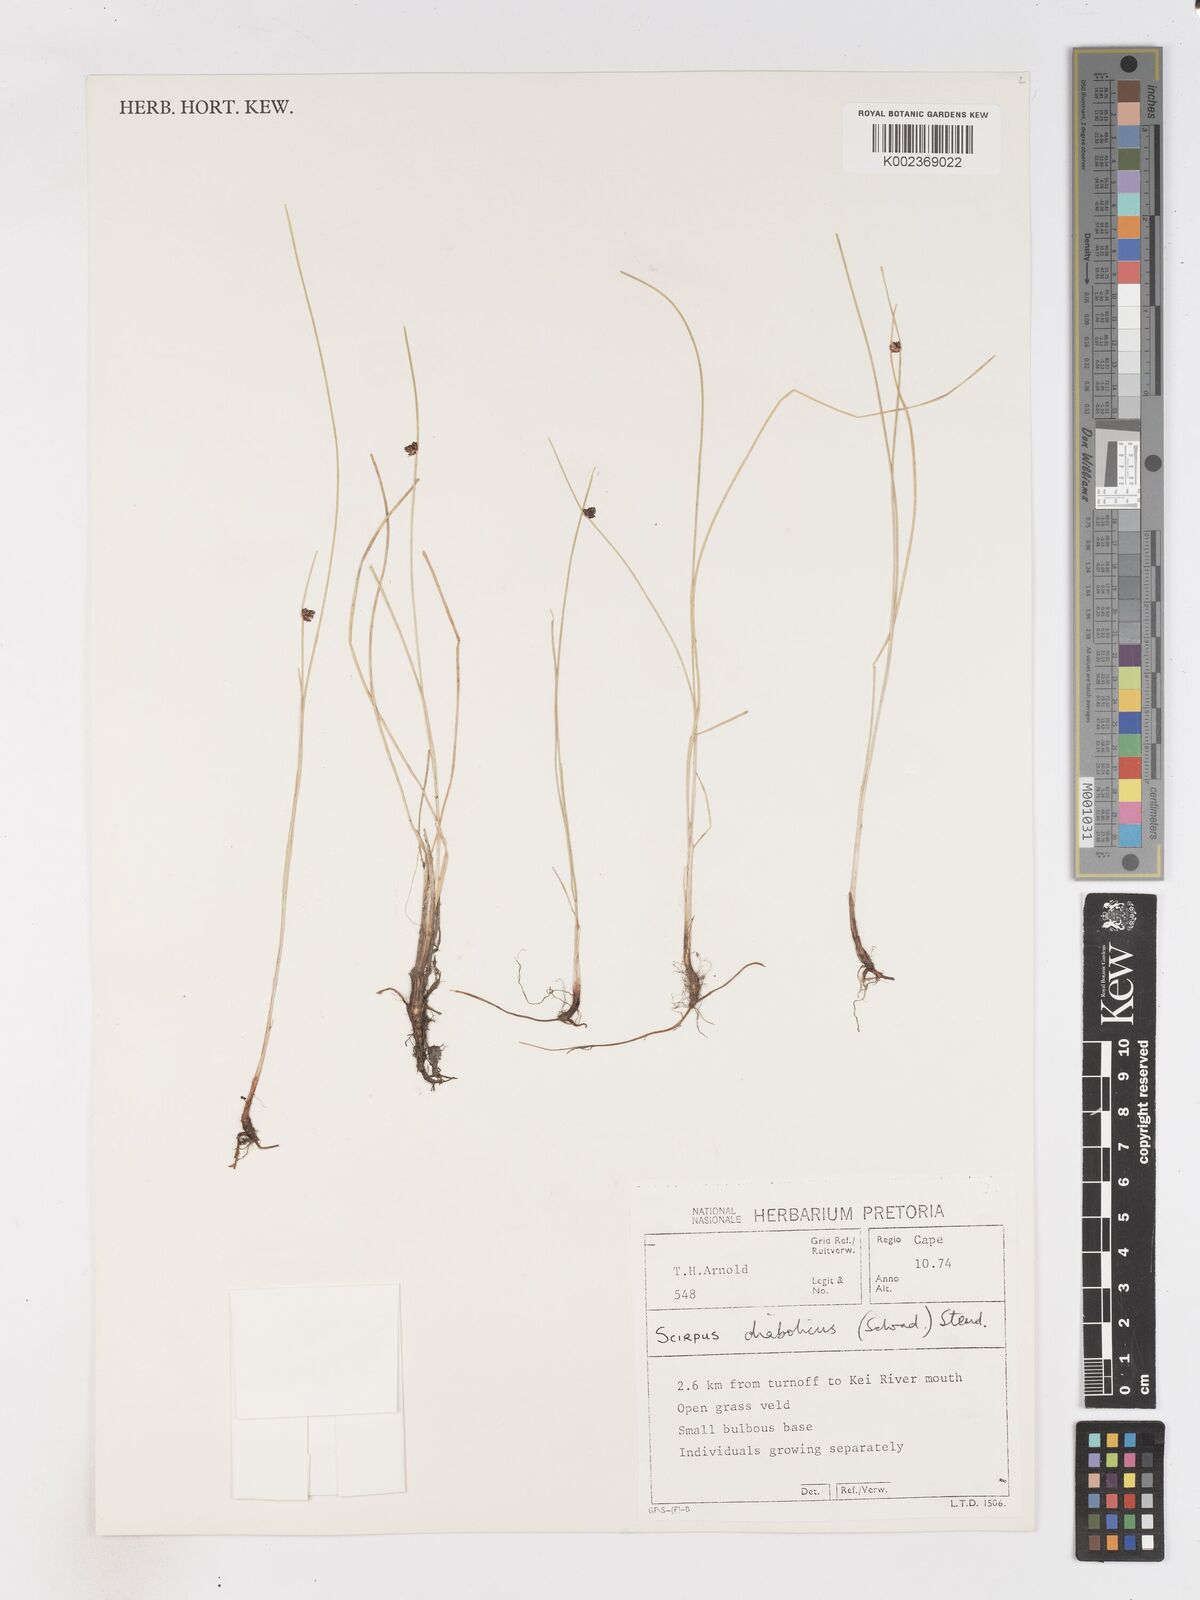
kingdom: Plantae
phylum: Tracheophyta
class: Liliopsida
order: Poales
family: Cyperaceae
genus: Isolepis
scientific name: Isolepis diabolica
